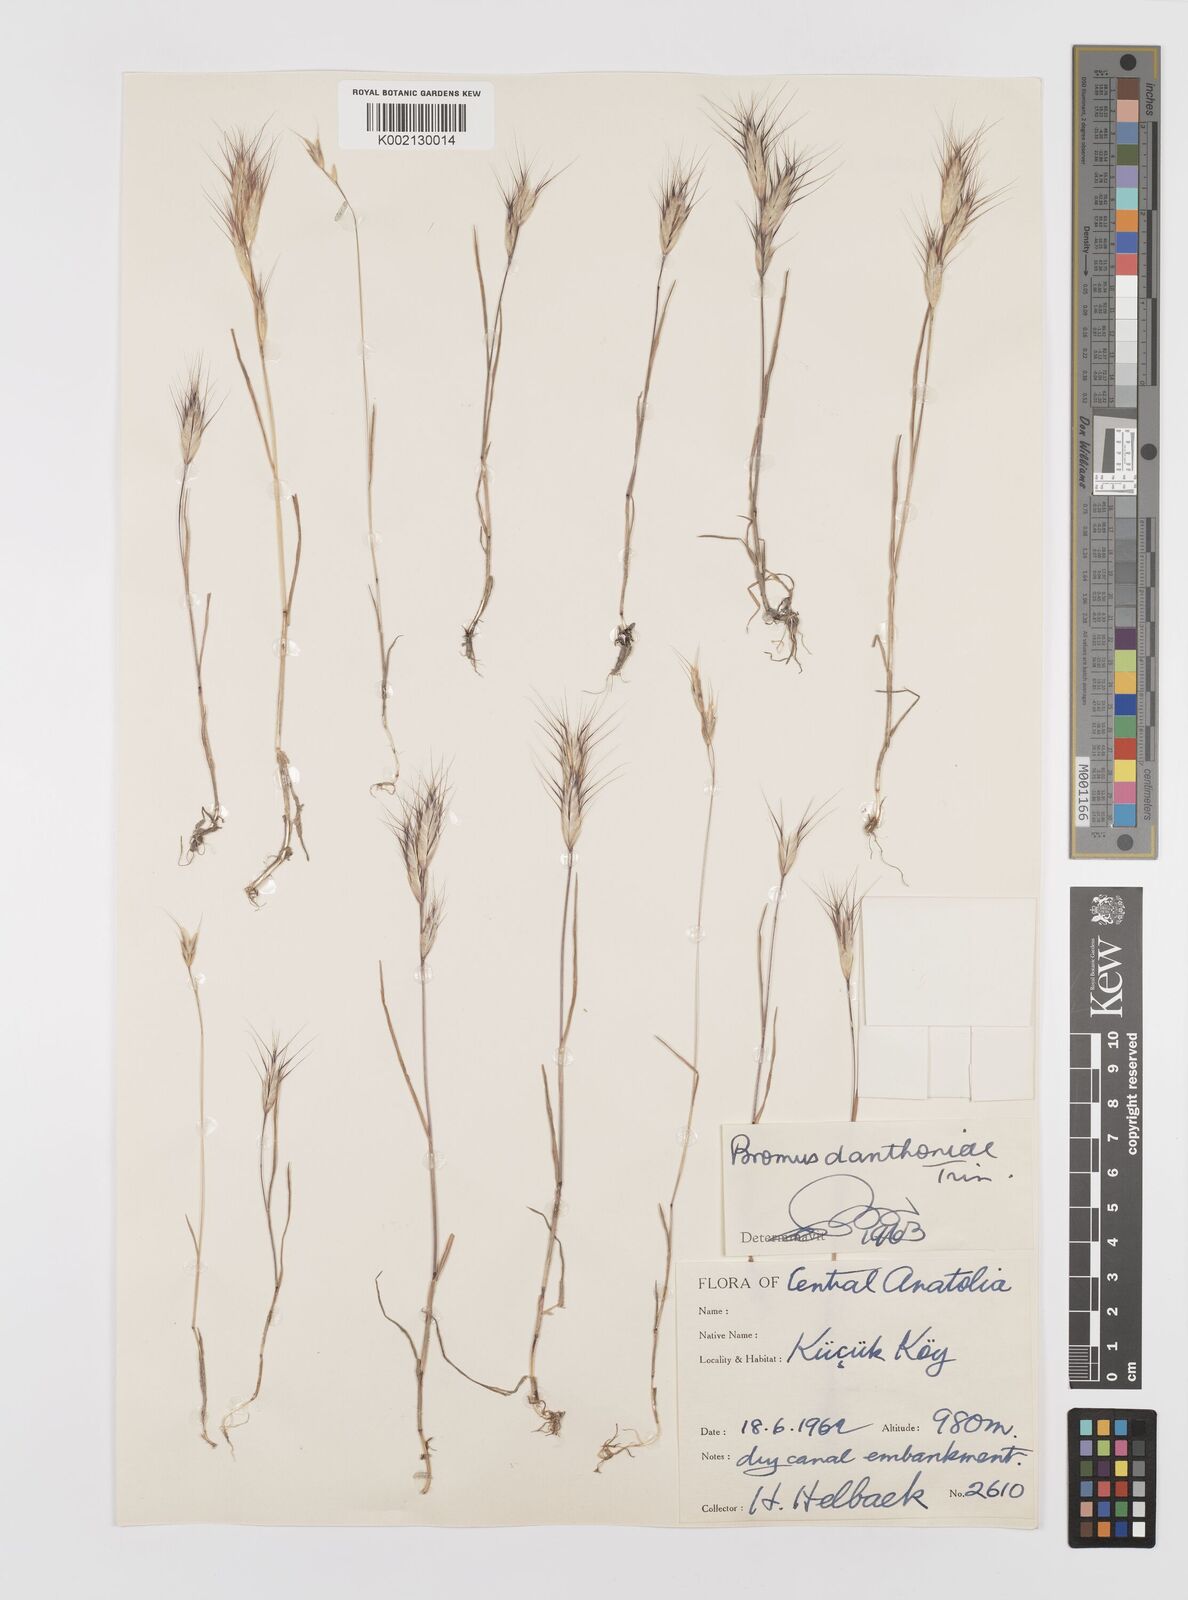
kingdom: Plantae
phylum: Tracheophyta
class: Liliopsida
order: Poales
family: Poaceae
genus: Bromus
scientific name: Bromus danthoniae
